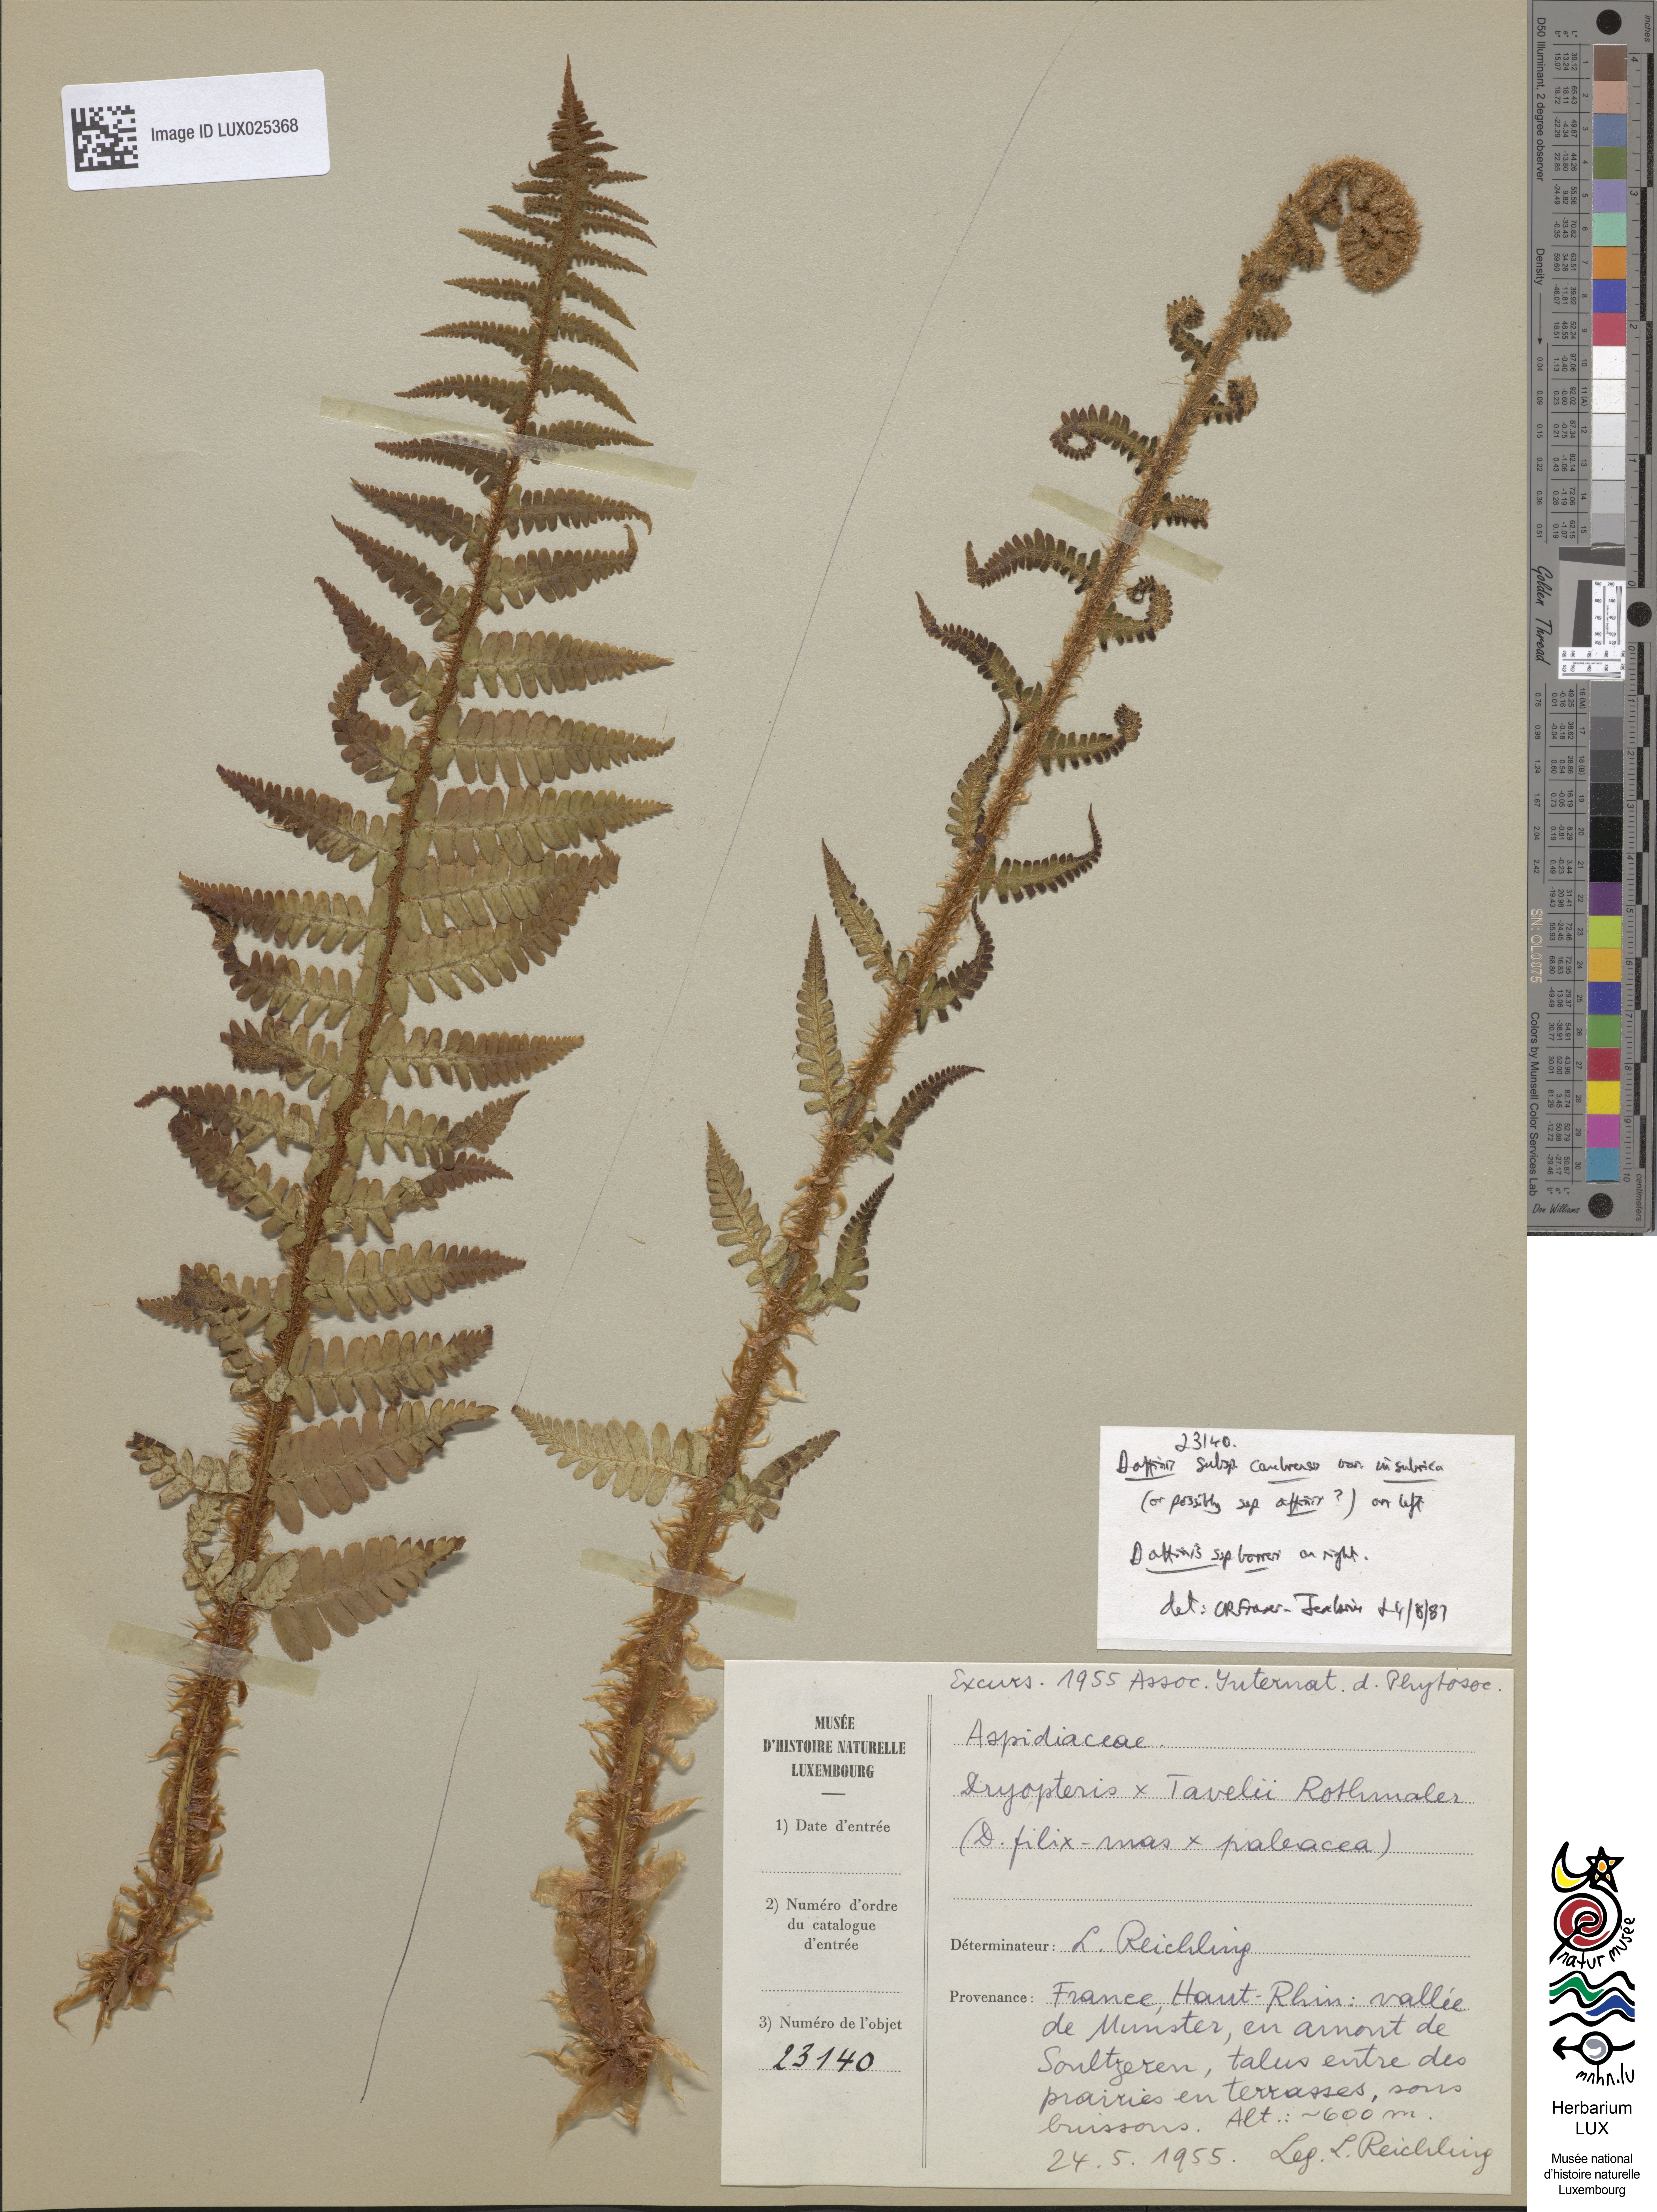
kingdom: Plantae
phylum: Tracheophyta
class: Polypodiopsida
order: Polypodiales
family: Dryopteridaceae
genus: Dryopteris
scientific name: Dryopteris borreri
